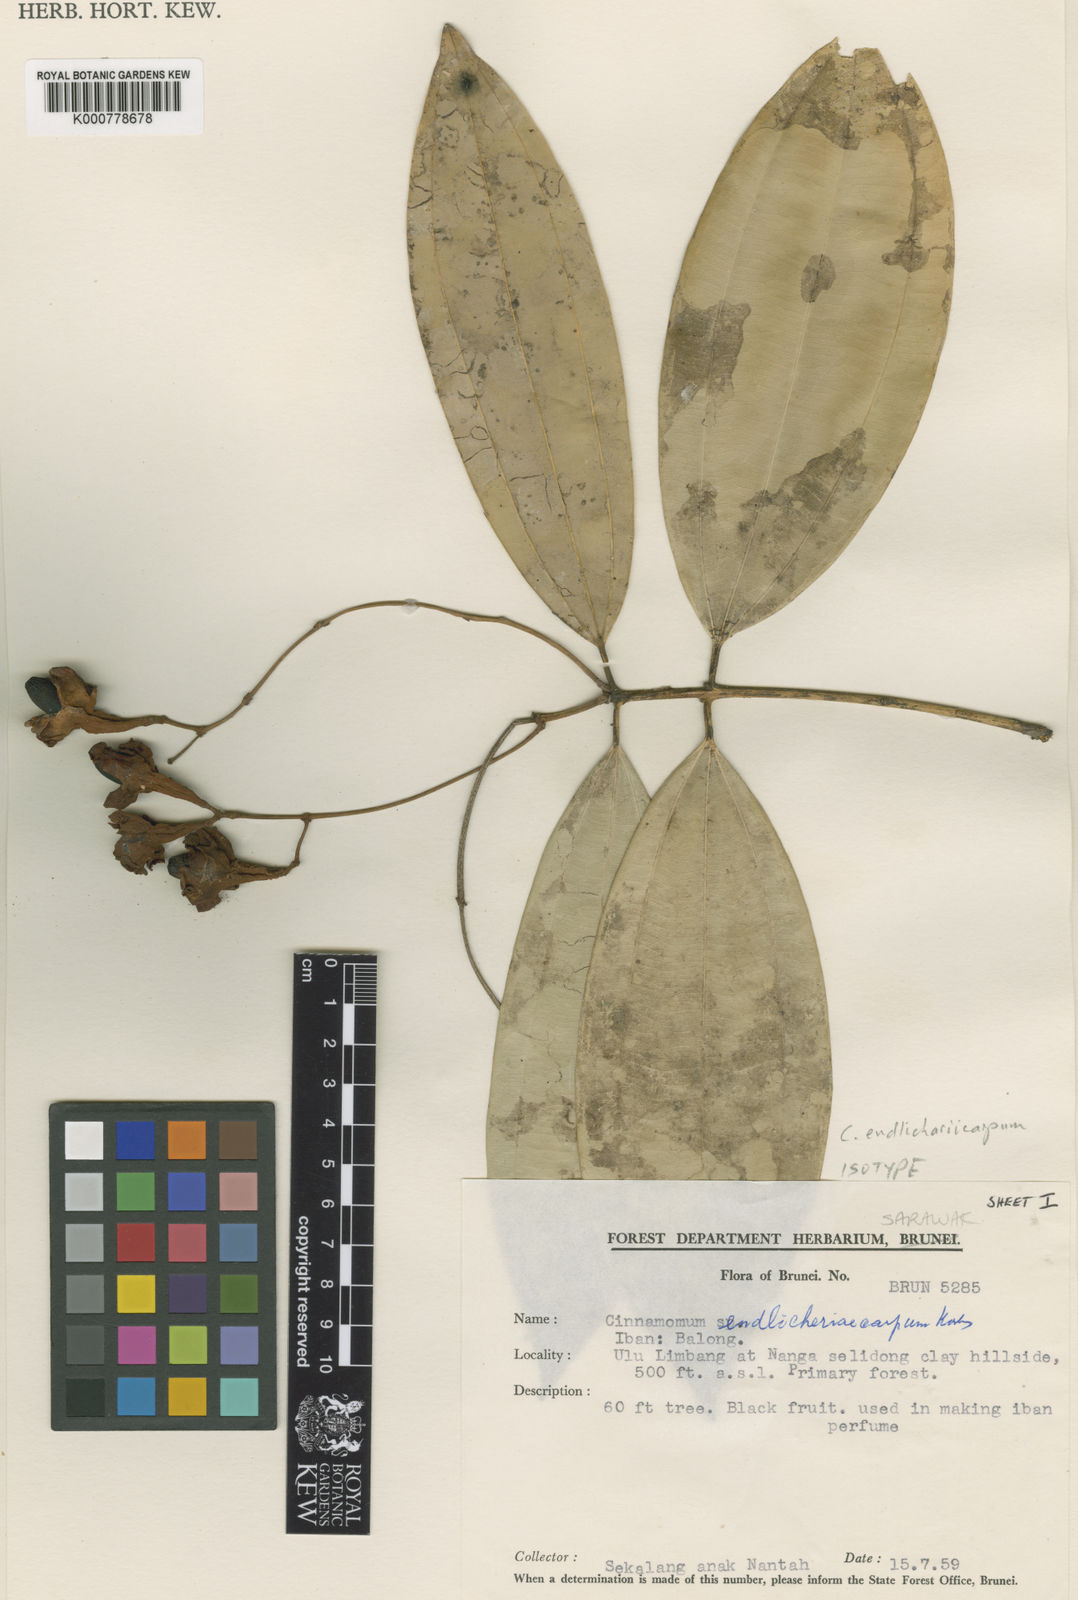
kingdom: Plantae
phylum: Tracheophyta
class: Magnoliopsida
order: Laurales
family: Lauraceae
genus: Cinnamomum
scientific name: Cinnamomum crassinervium
